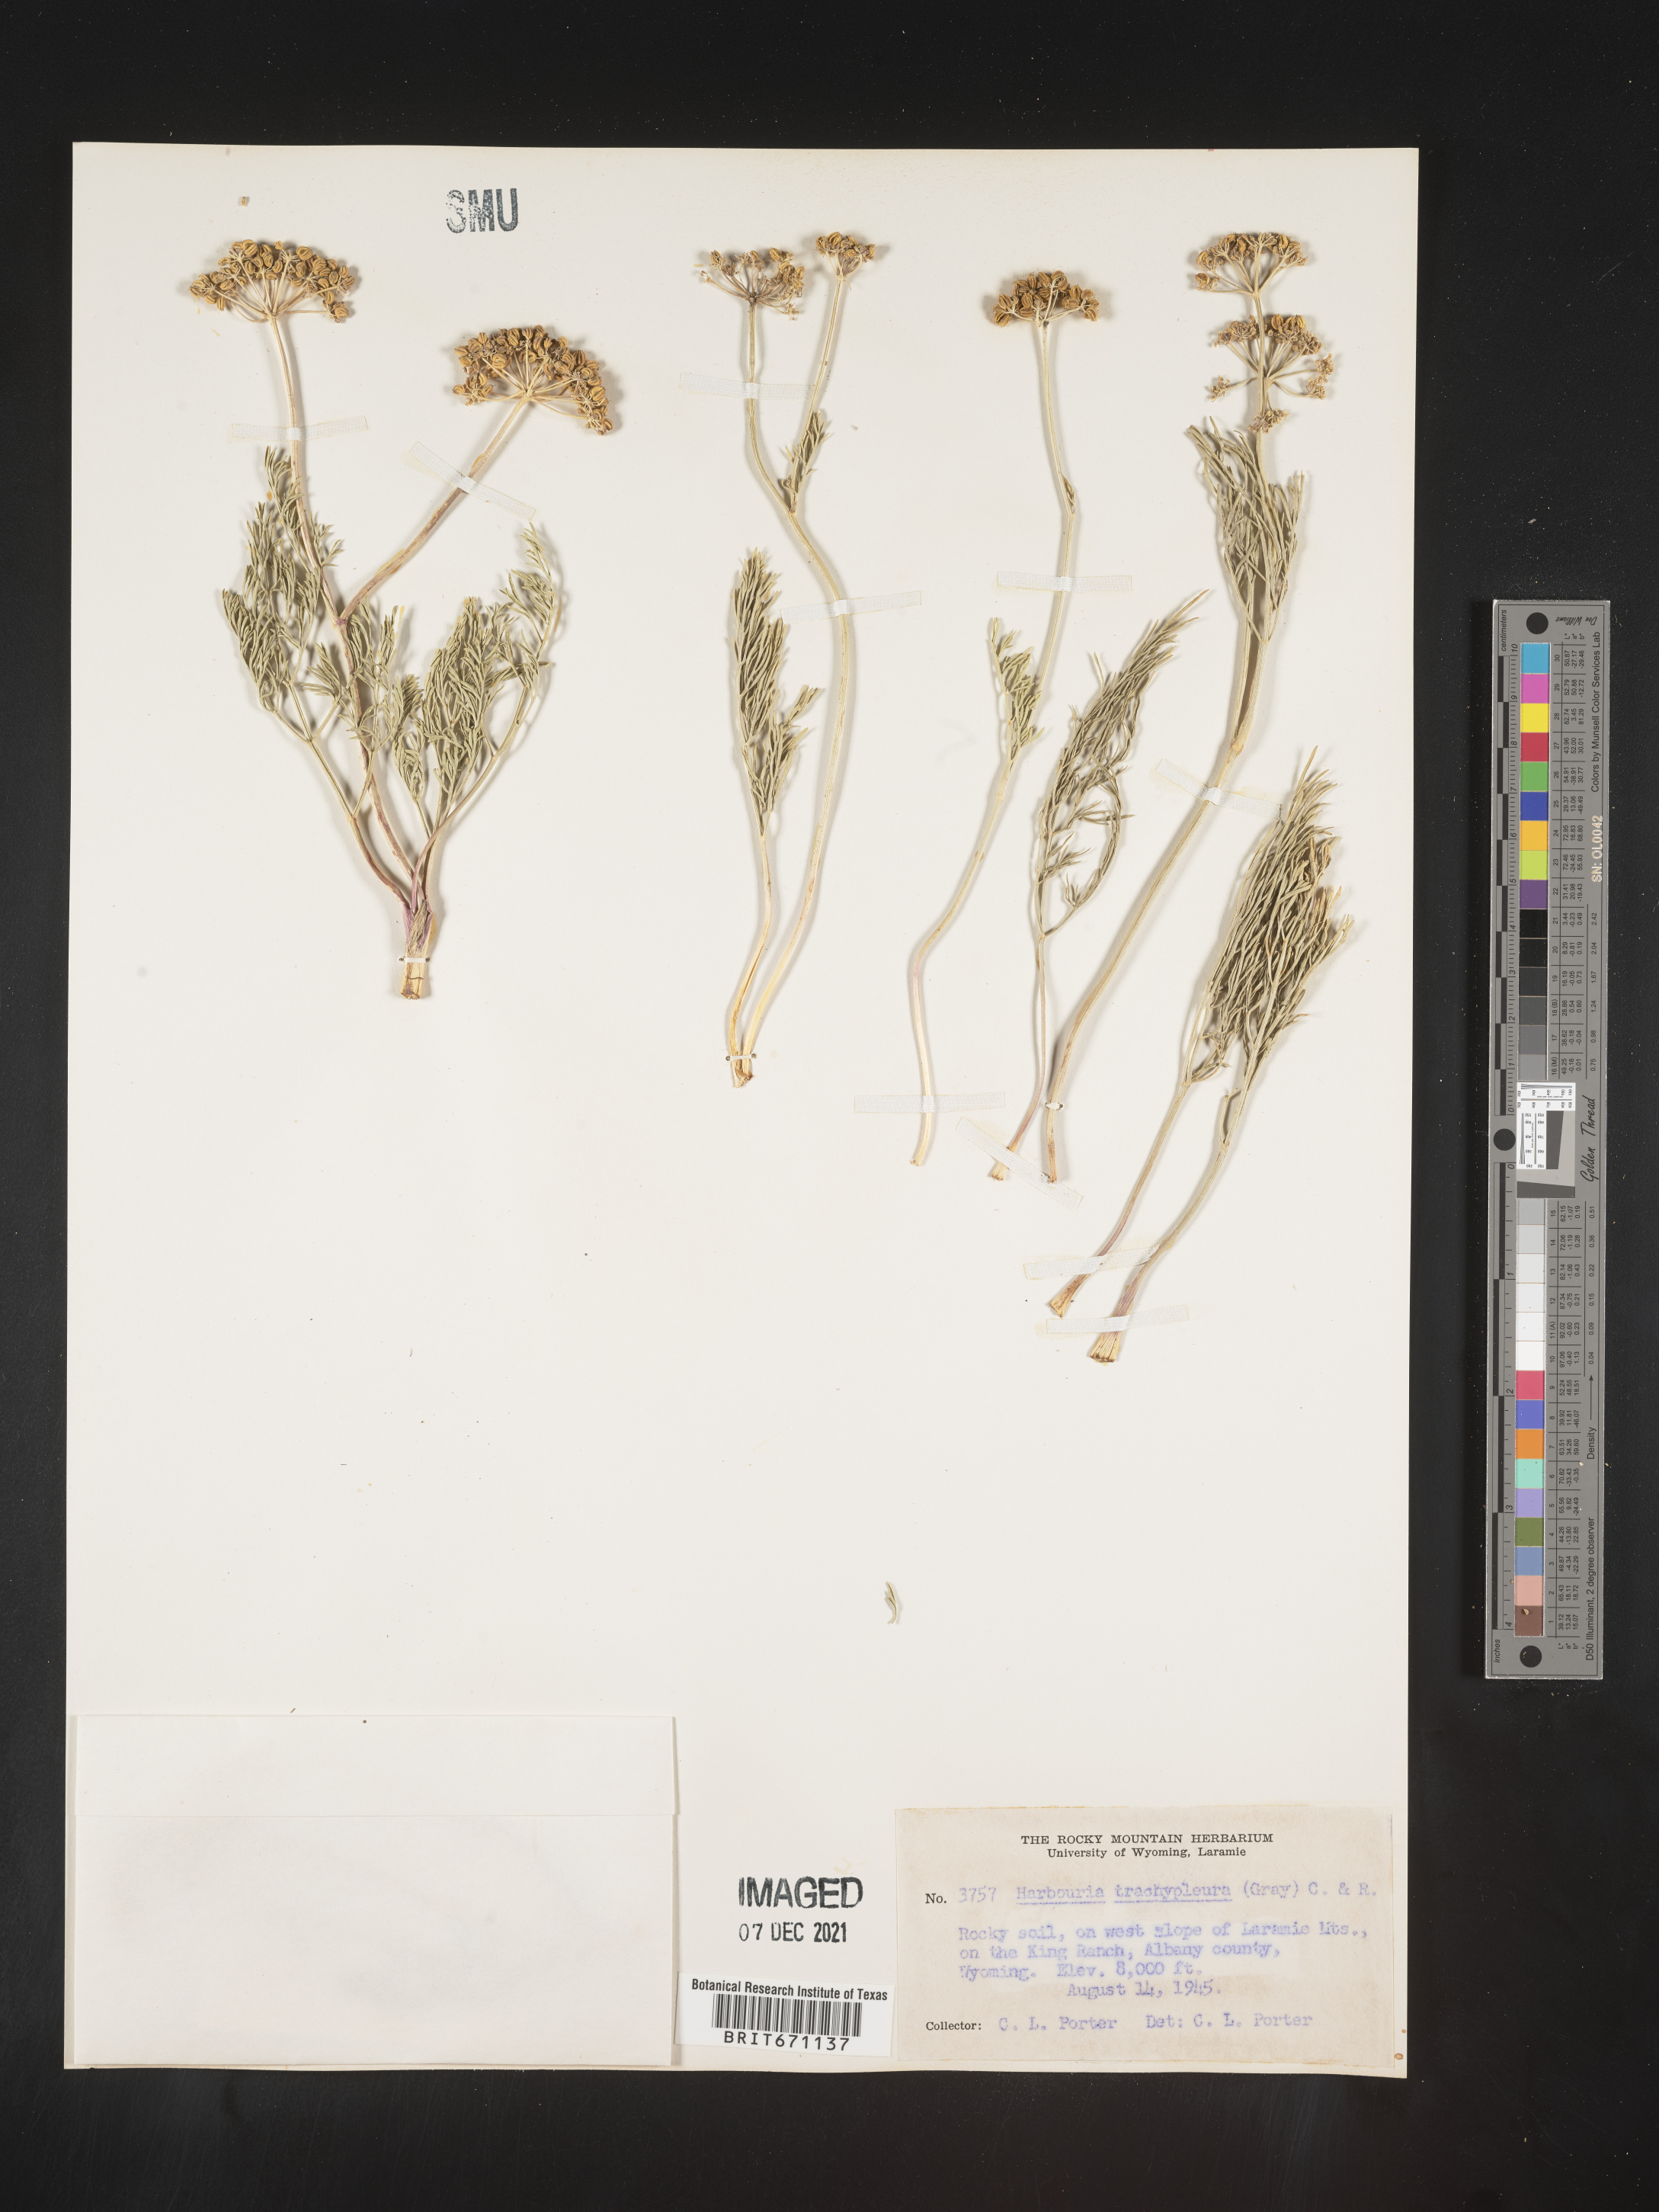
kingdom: Plantae
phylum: Tracheophyta
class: Magnoliopsida
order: Apiales
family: Apiaceae
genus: Harbouria
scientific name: Harbouria trachypleura
